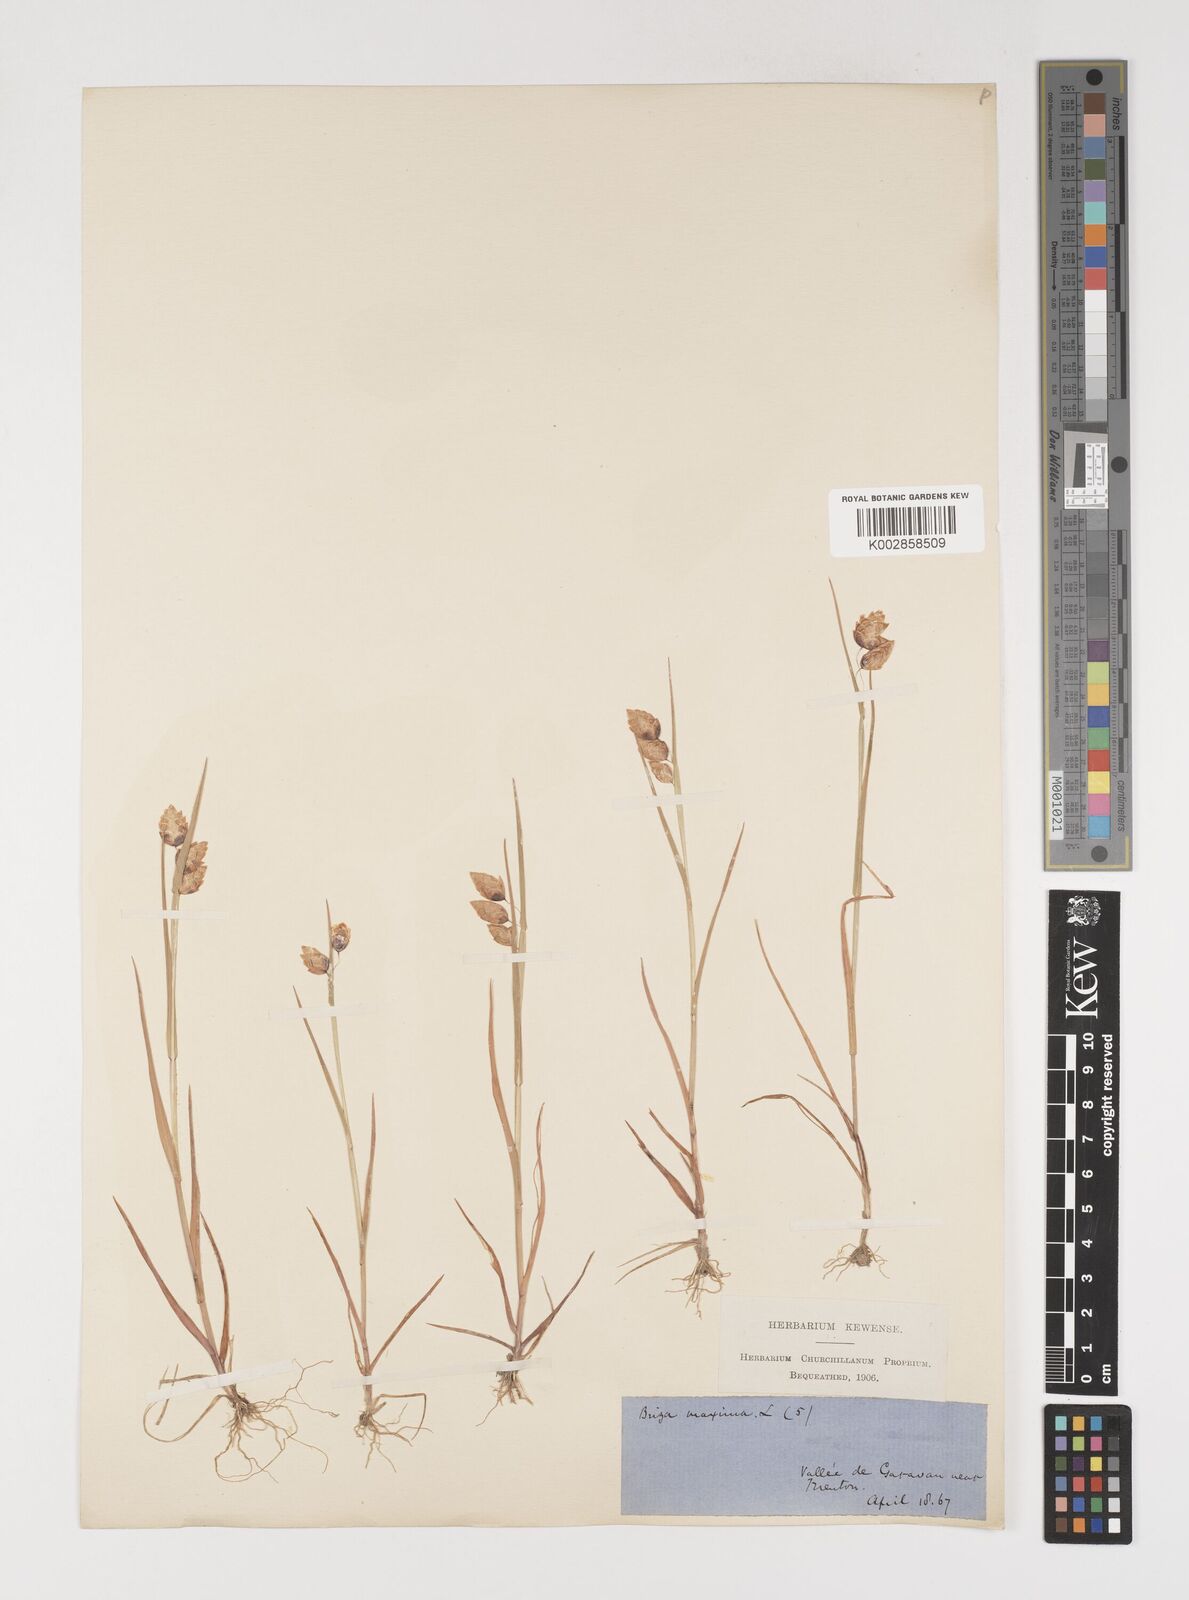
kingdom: Plantae
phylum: Tracheophyta
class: Liliopsida
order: Poales
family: Poaceae
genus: Briza
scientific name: Briza maxima
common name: Big quakinggrass
